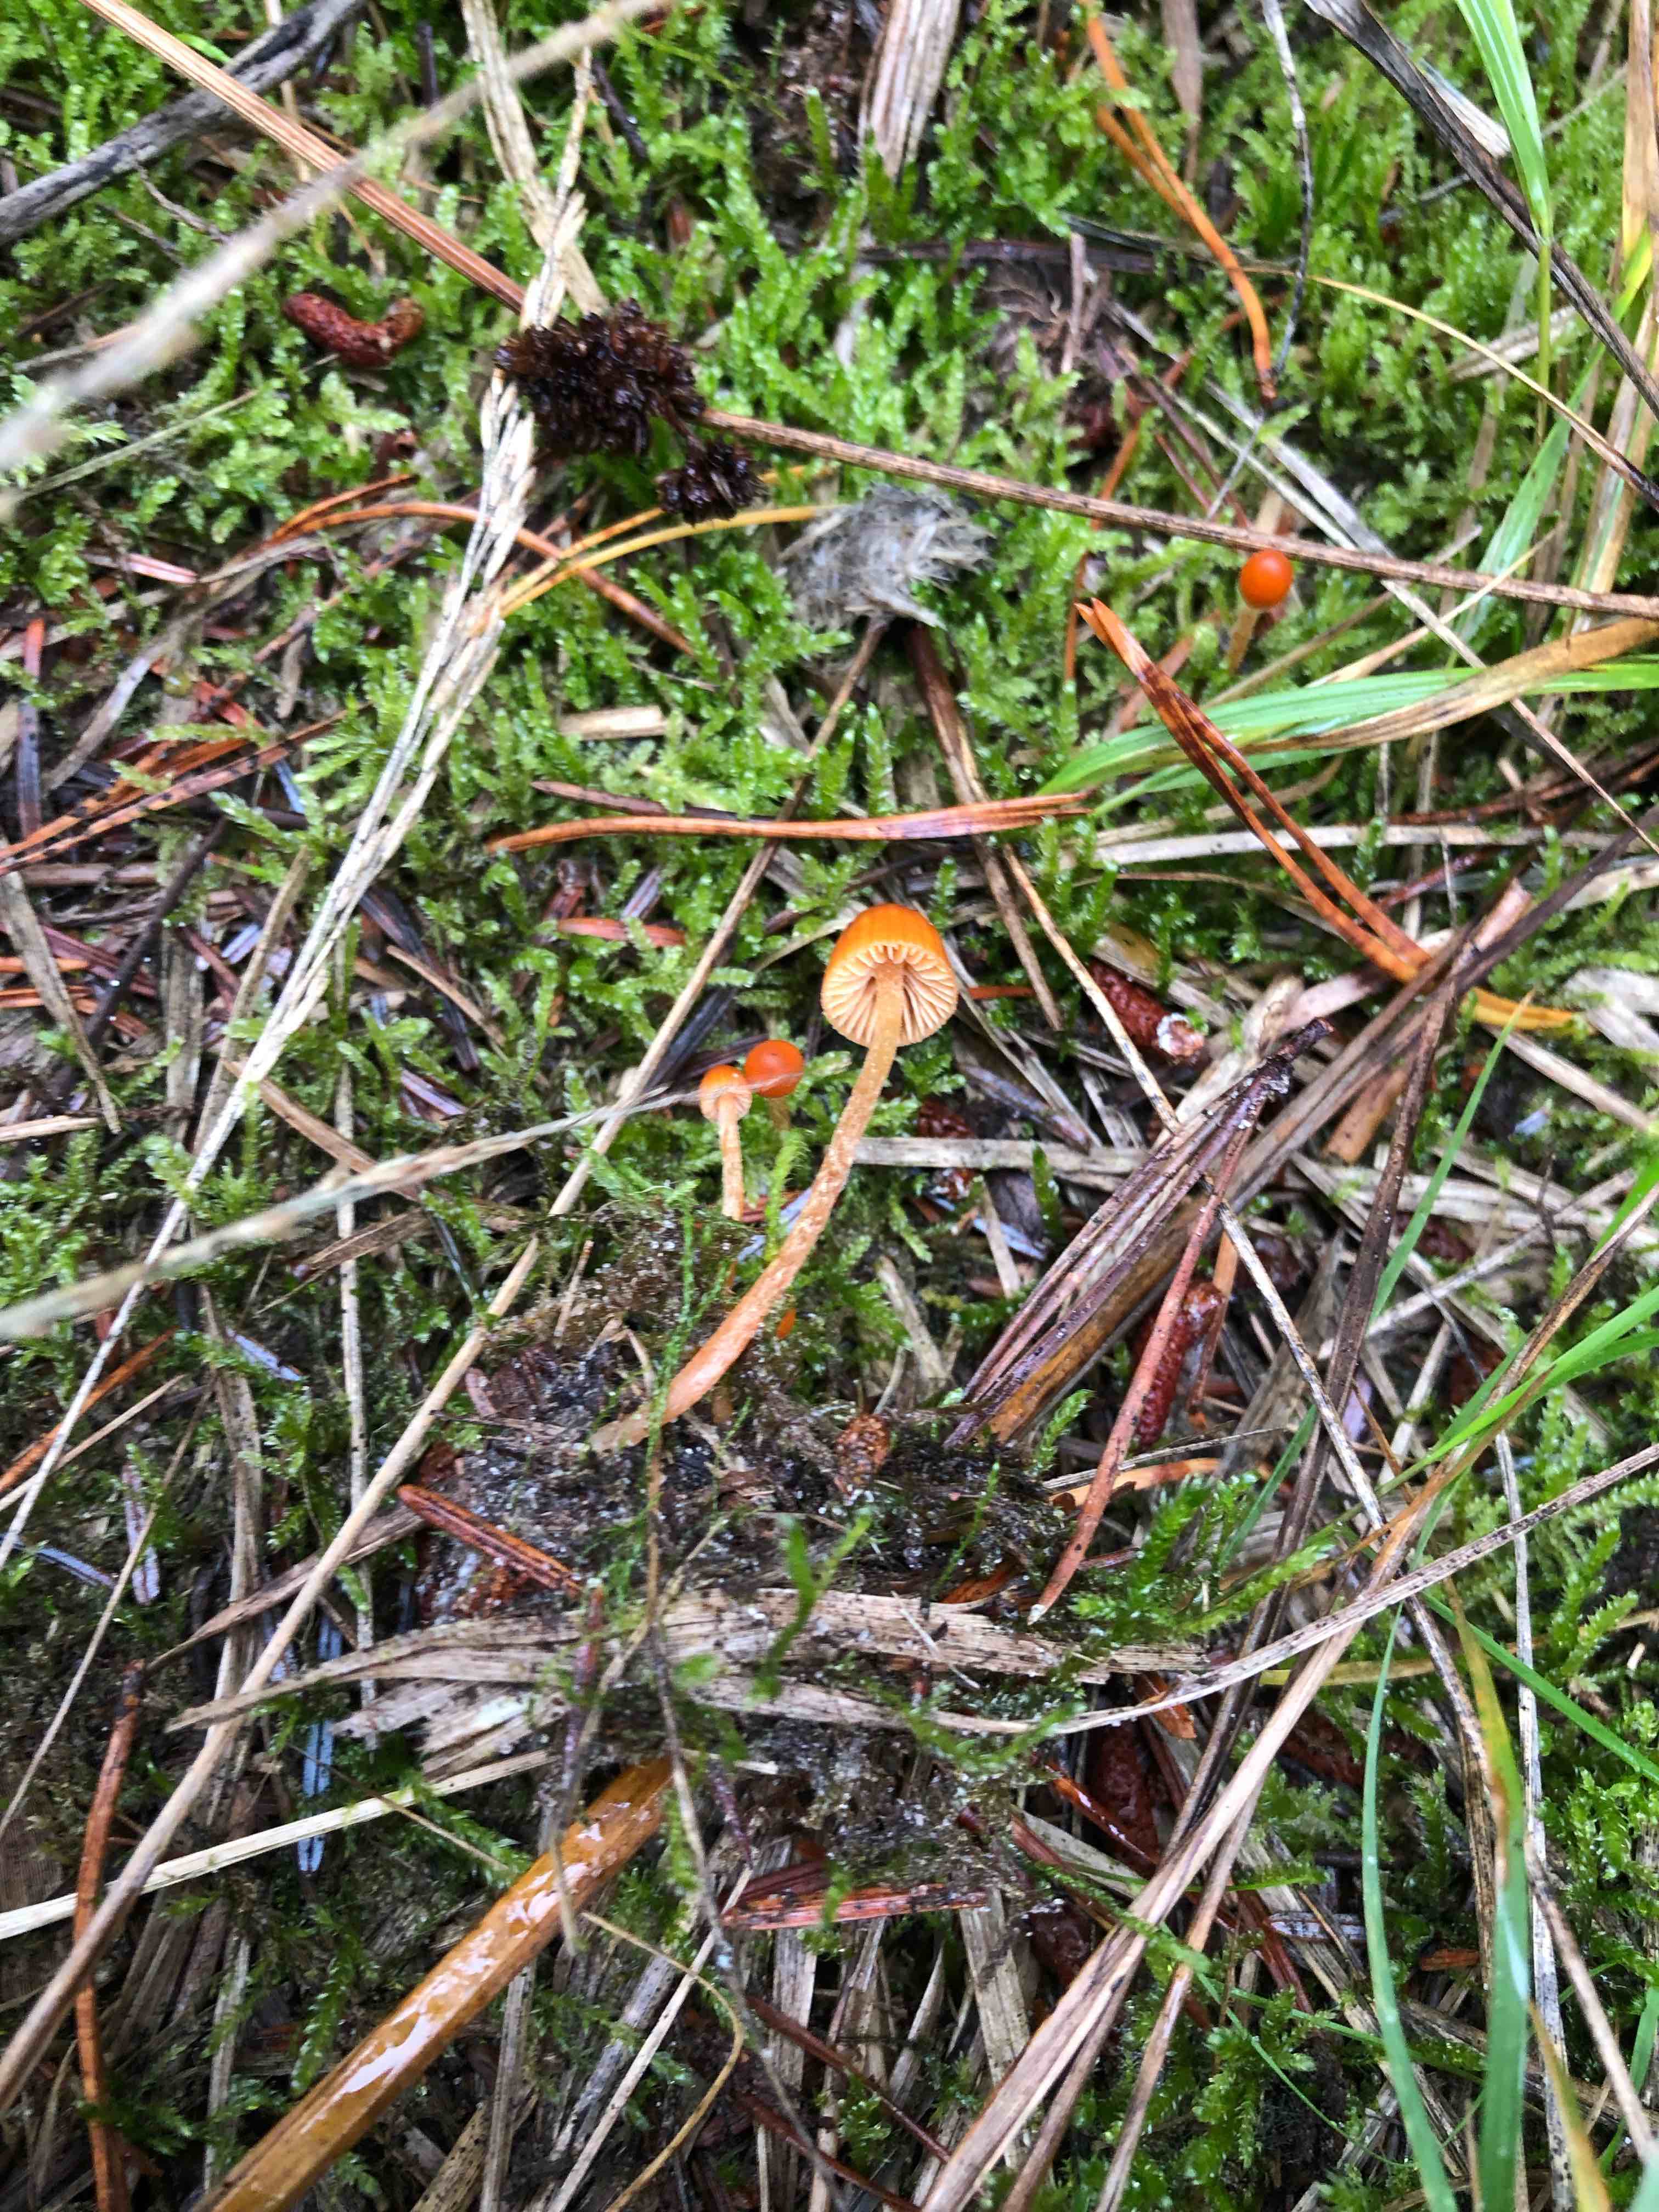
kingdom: Fungi
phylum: Basidiomycota
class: Agaricomycetes
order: Agaricales
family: Hymenogastraceae
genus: Galerina
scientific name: Galerina
